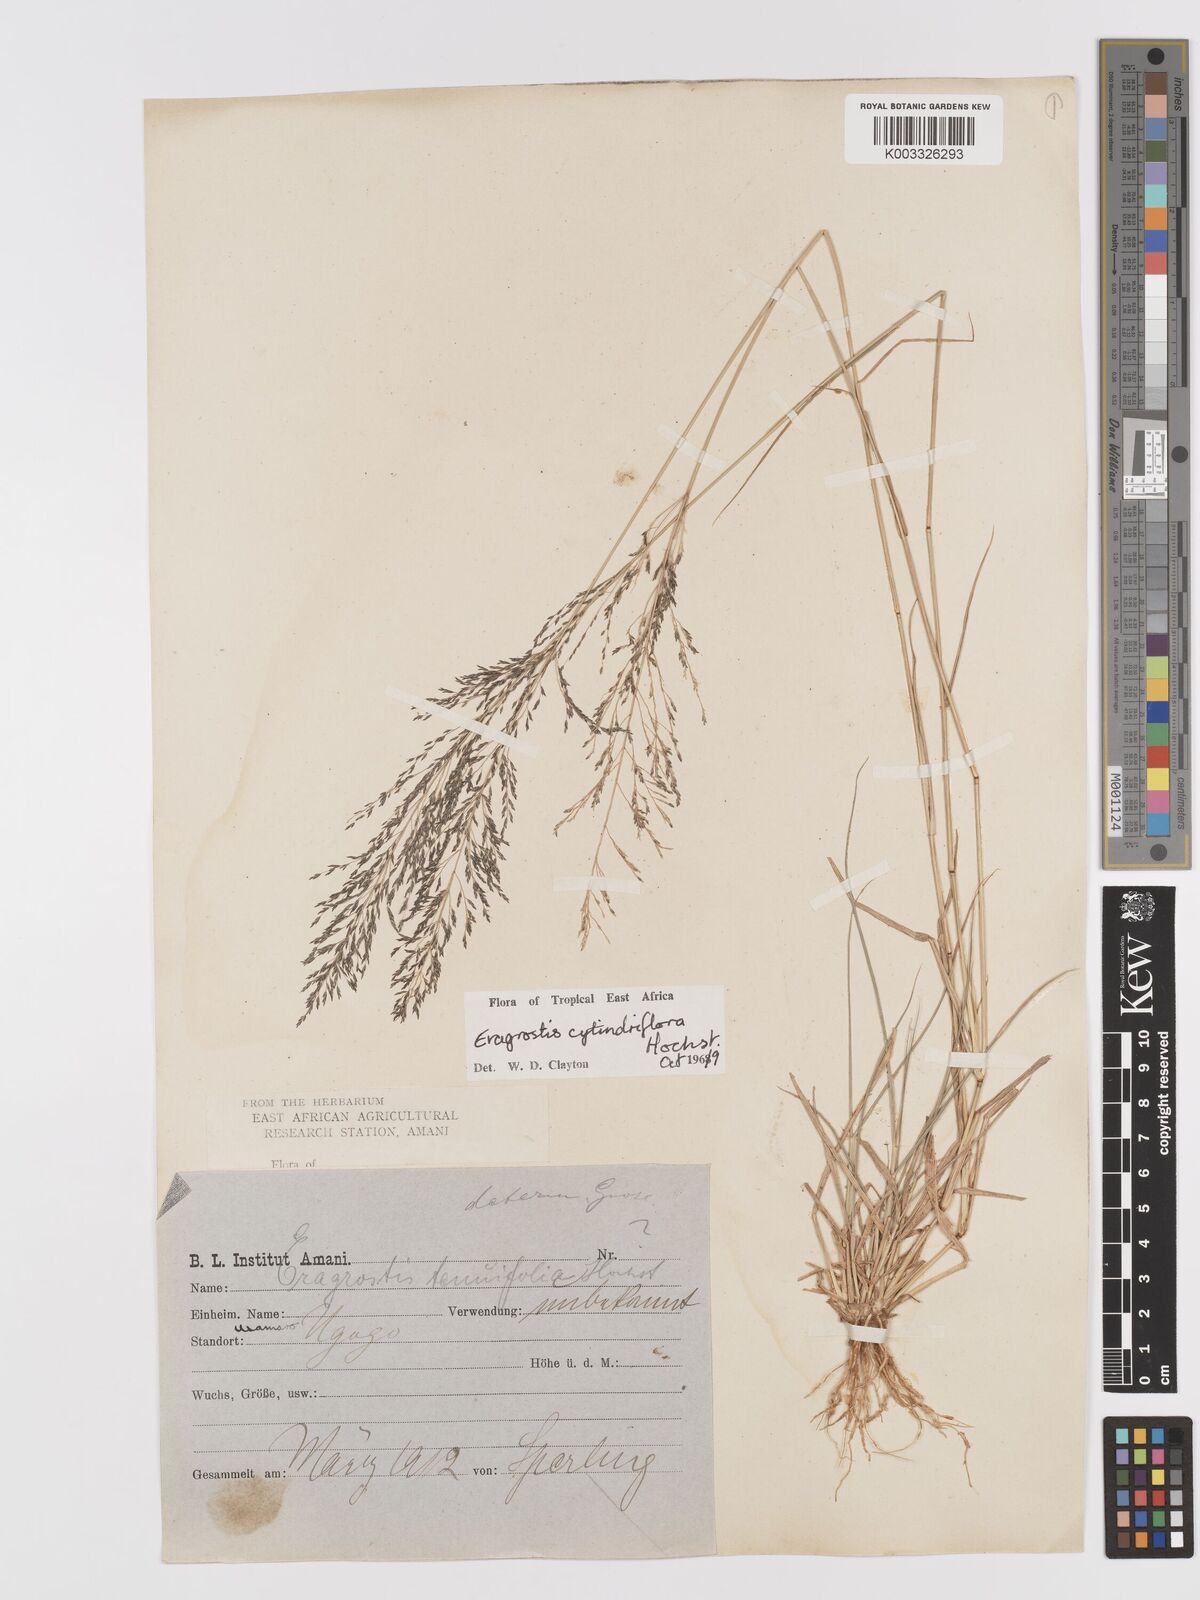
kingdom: Plantae
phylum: Tracheophyta
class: Liliopsida
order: Poales
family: Poaceae
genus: Eragrostis
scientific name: Eragrostis cylindriflora
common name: Cylinderflower lovegrass
